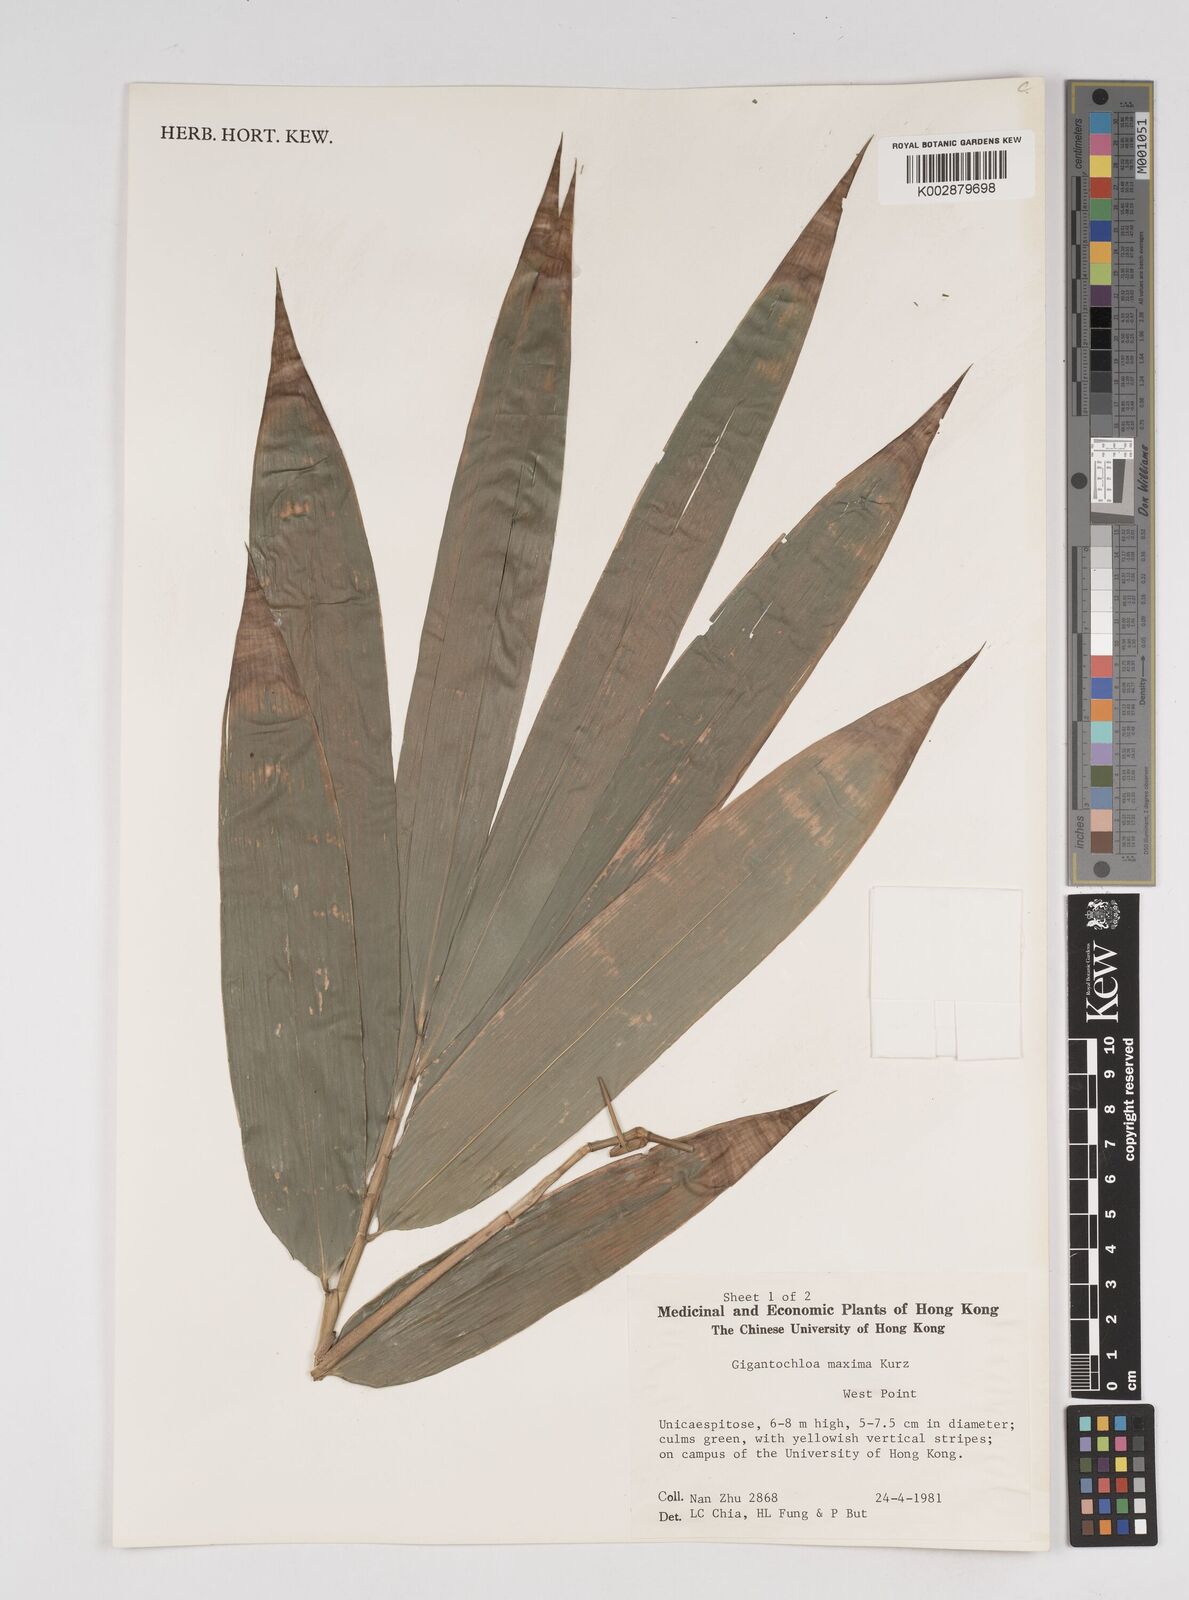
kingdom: Plantae
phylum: Tracheophyta
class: Liliopsida
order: Poales
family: Poaceae
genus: Bambusa
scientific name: Bambusa bambos
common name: Indian thorny bamboo
